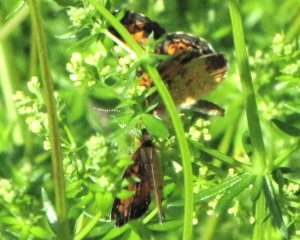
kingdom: Animalia
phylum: Arthropoda
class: Insecta
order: Lepidoptera
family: Nymphalidae
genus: Phyciodes
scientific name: Phyciodes tharos
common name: Northern Crescent
